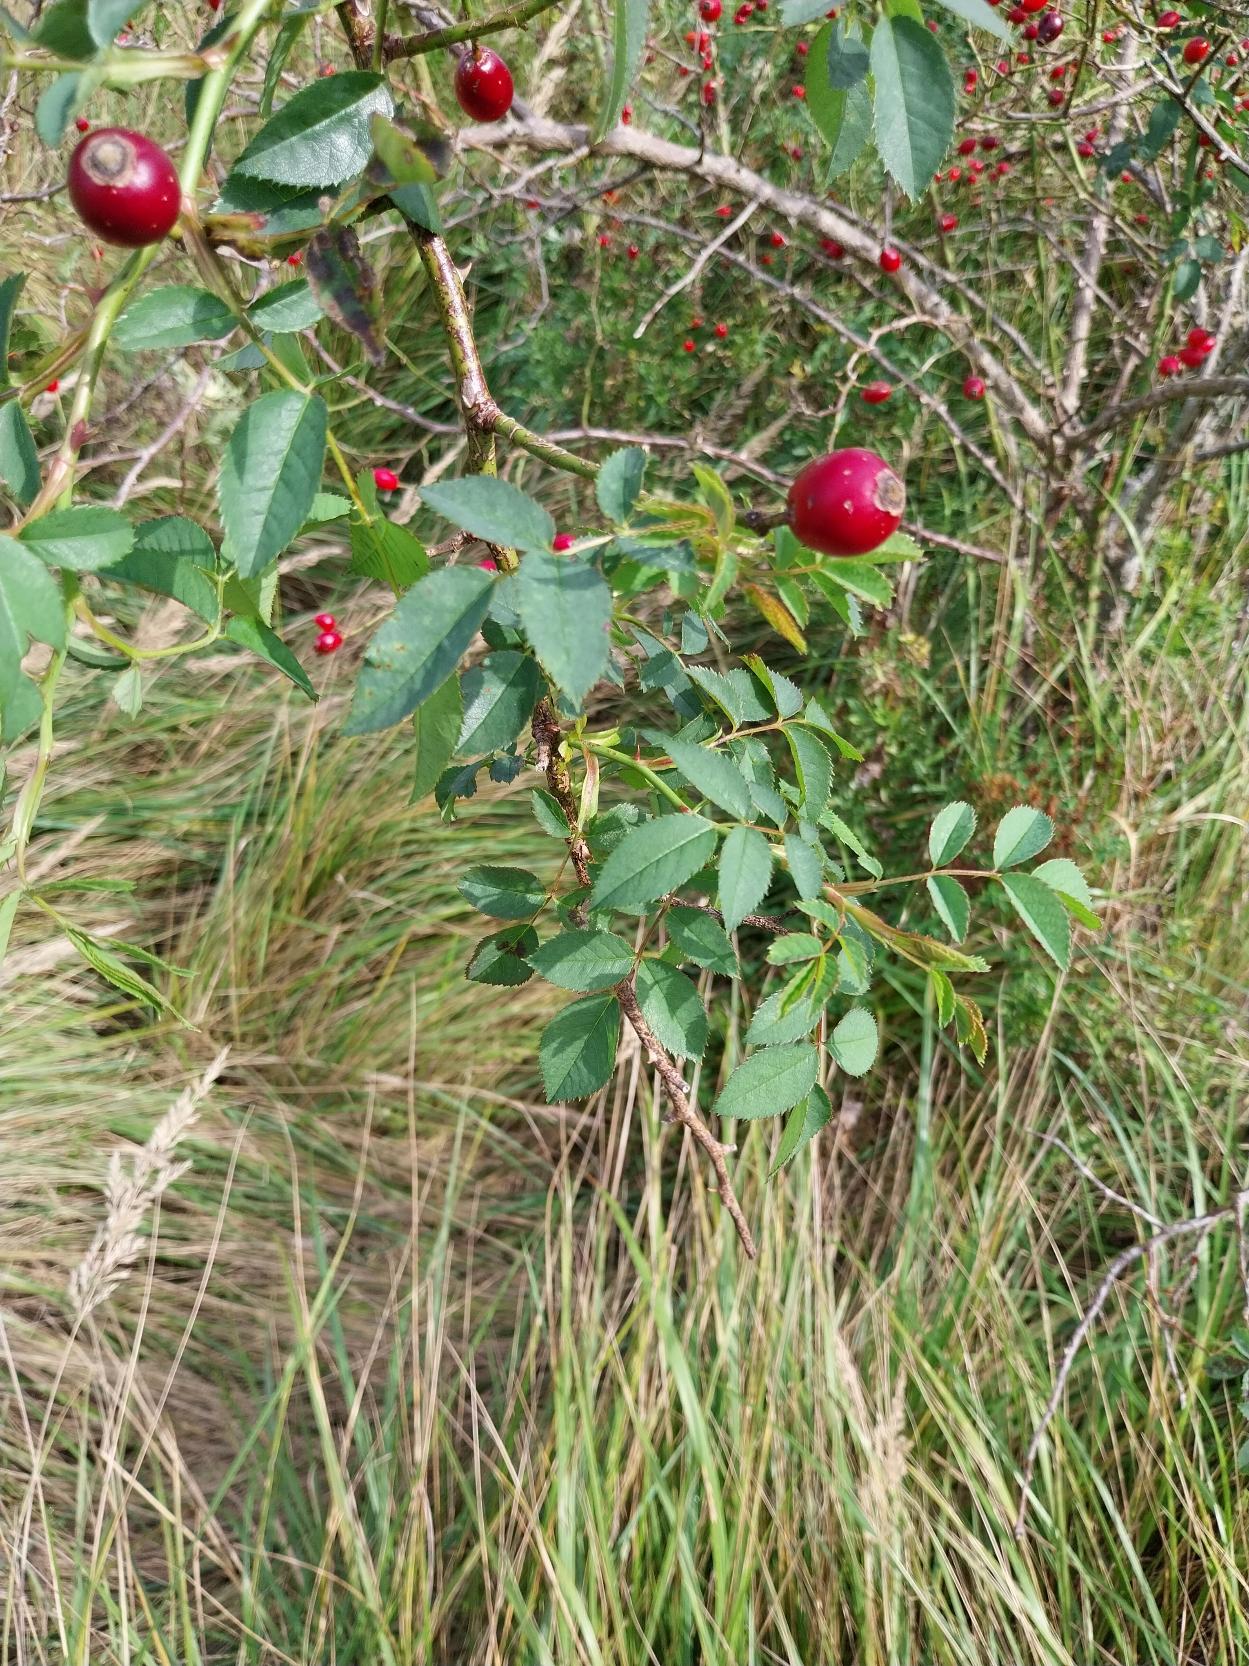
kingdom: Plantae
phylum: Tracheophyta
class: Magnoliopsida
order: Rosales
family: Rosaceae
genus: Rosa
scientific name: Rosa dumalis
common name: Blågrøn rose (underart)
